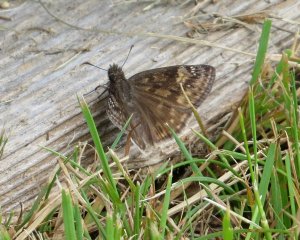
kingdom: Animalia
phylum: Arthropoda
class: Insecta
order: Lepidoptera
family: Hesperiidae
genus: Gesta
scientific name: Gesta
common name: Wild Indigo Duskywing
